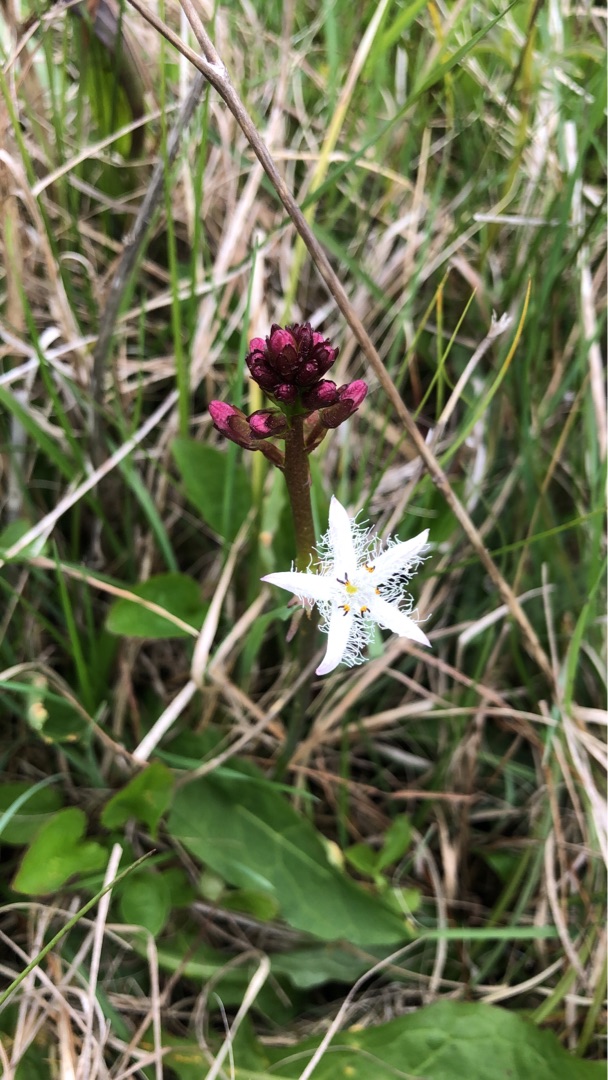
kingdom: Plantae
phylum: Tracheophyta
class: Magnoliopsida
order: Asterales
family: Menyanthaceae
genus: Menyanthes
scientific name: Menyanthes trifoliata
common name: Bukkeblad
